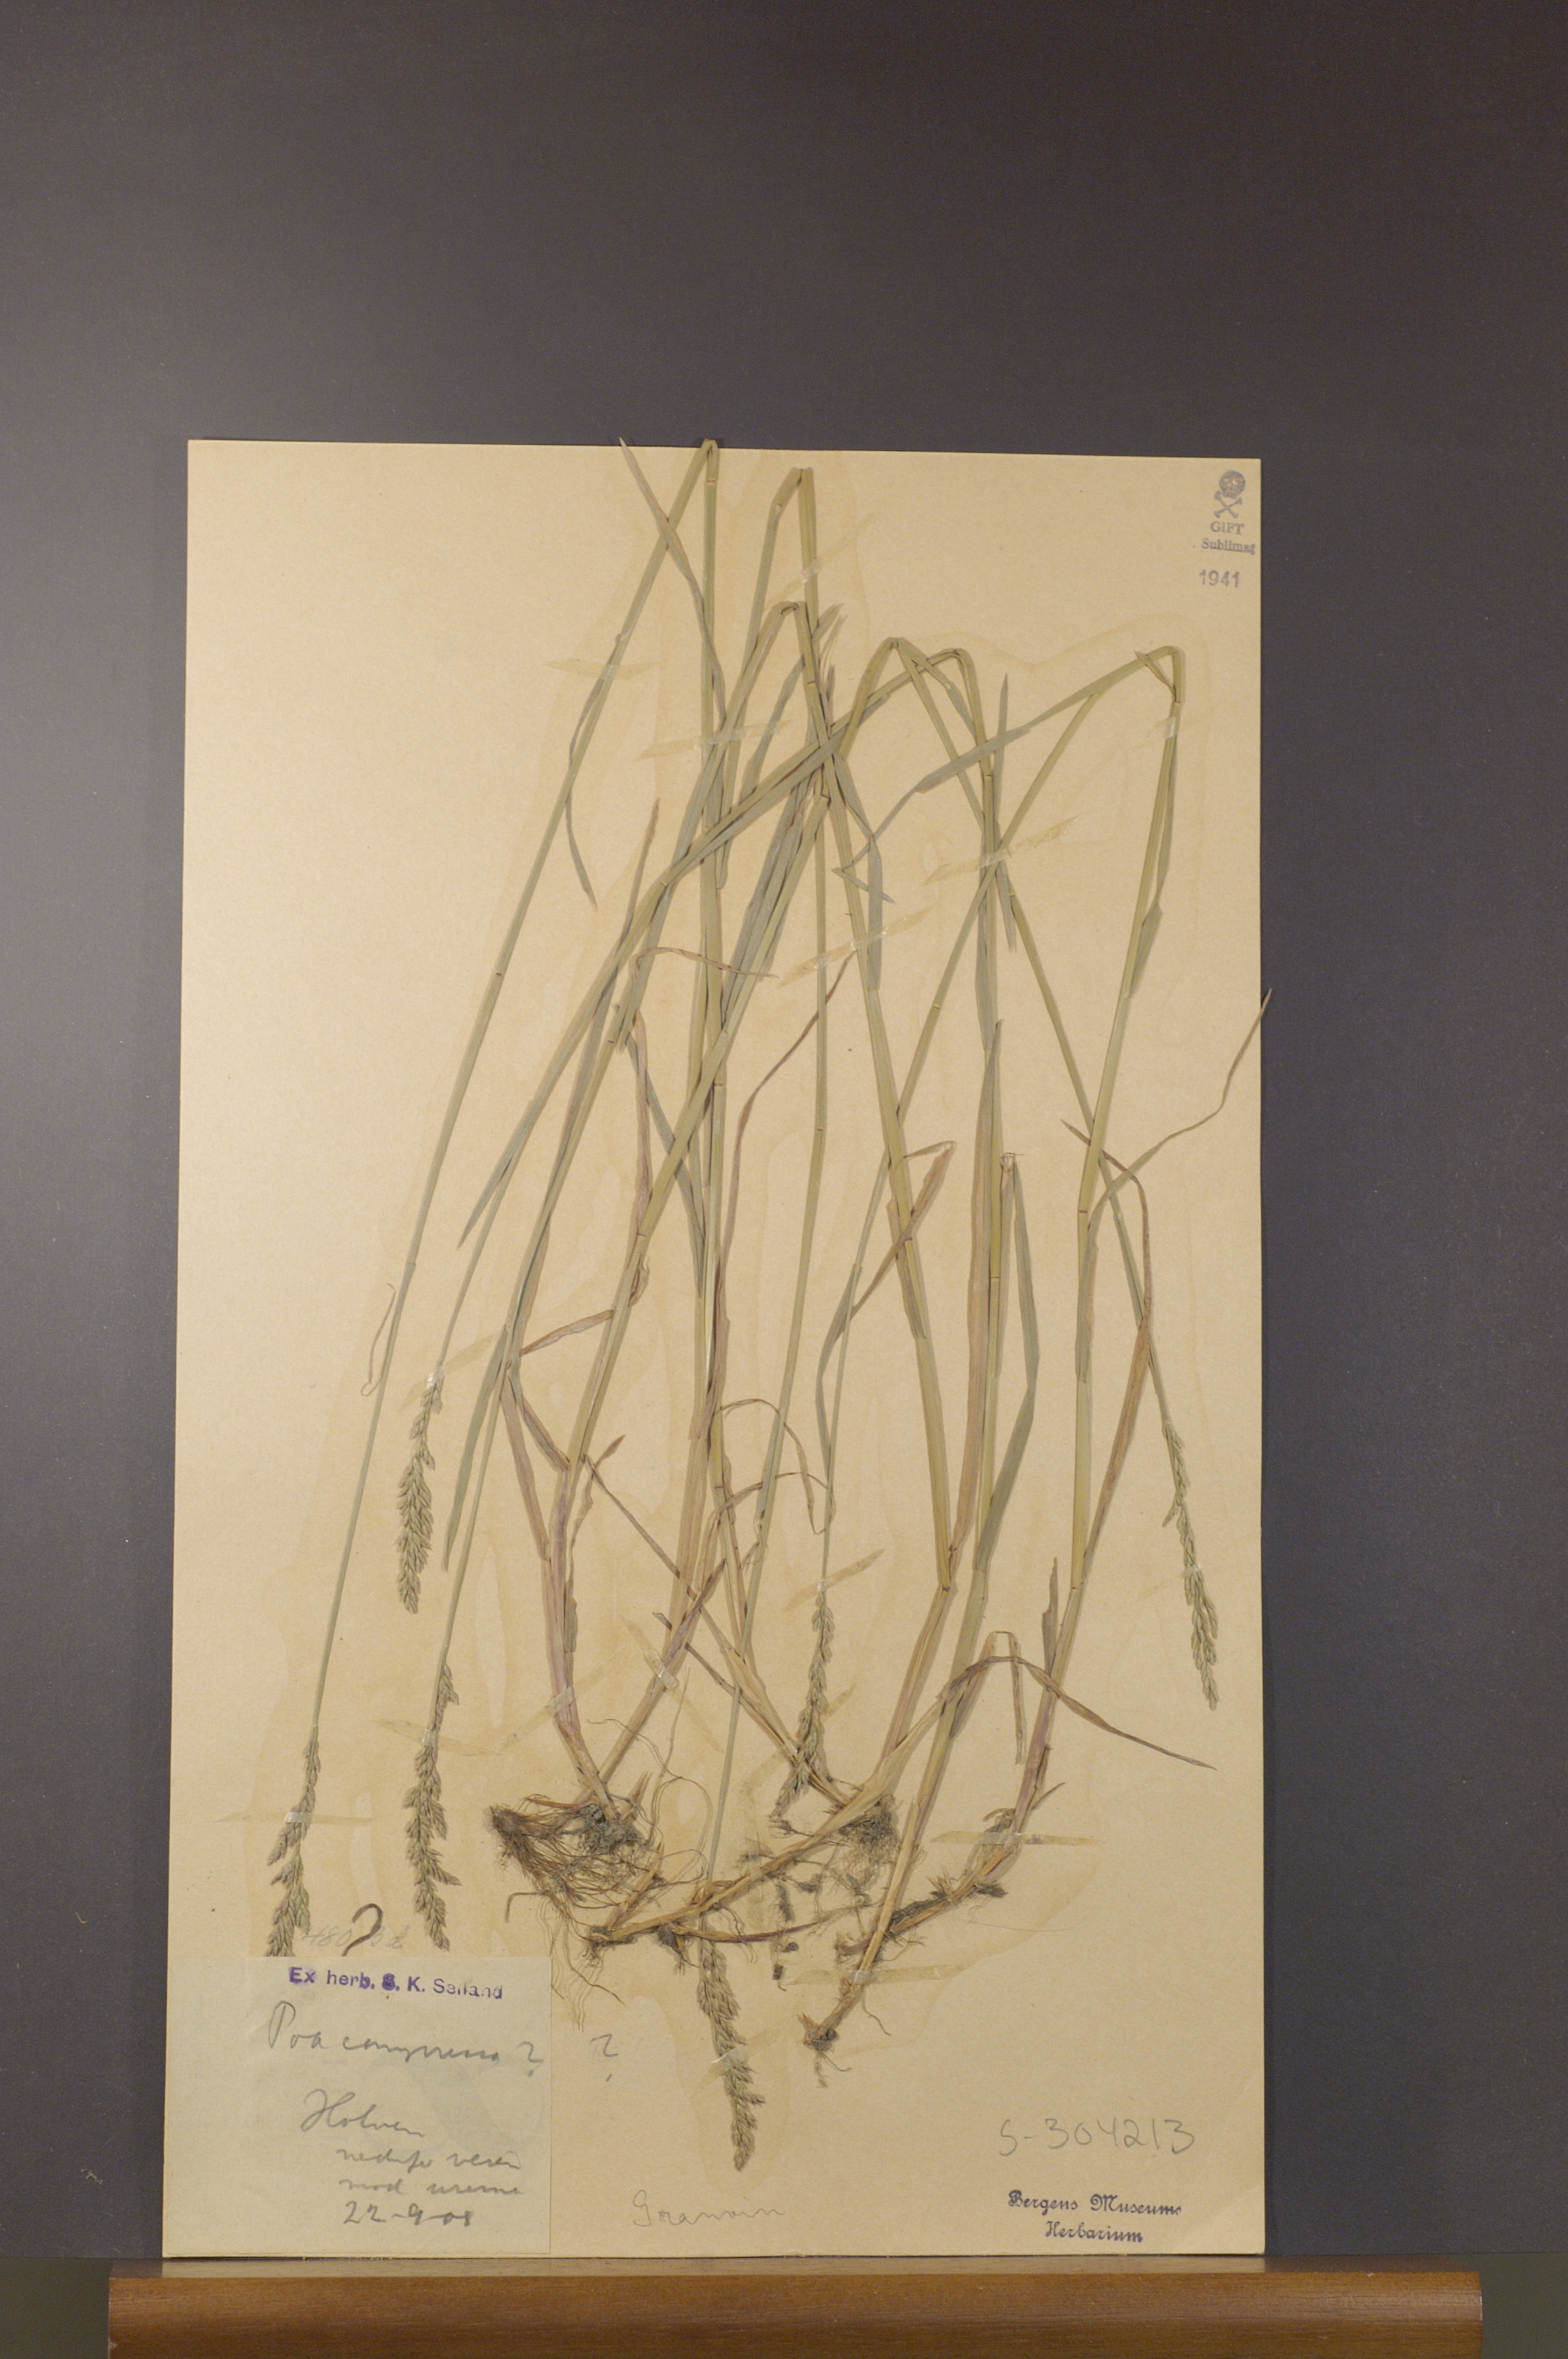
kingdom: Plantae
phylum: Tracheophyta
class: Liliopsida
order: Poales
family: Poaceae
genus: Poa
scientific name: Poa compressa
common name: Canada bluegrass
